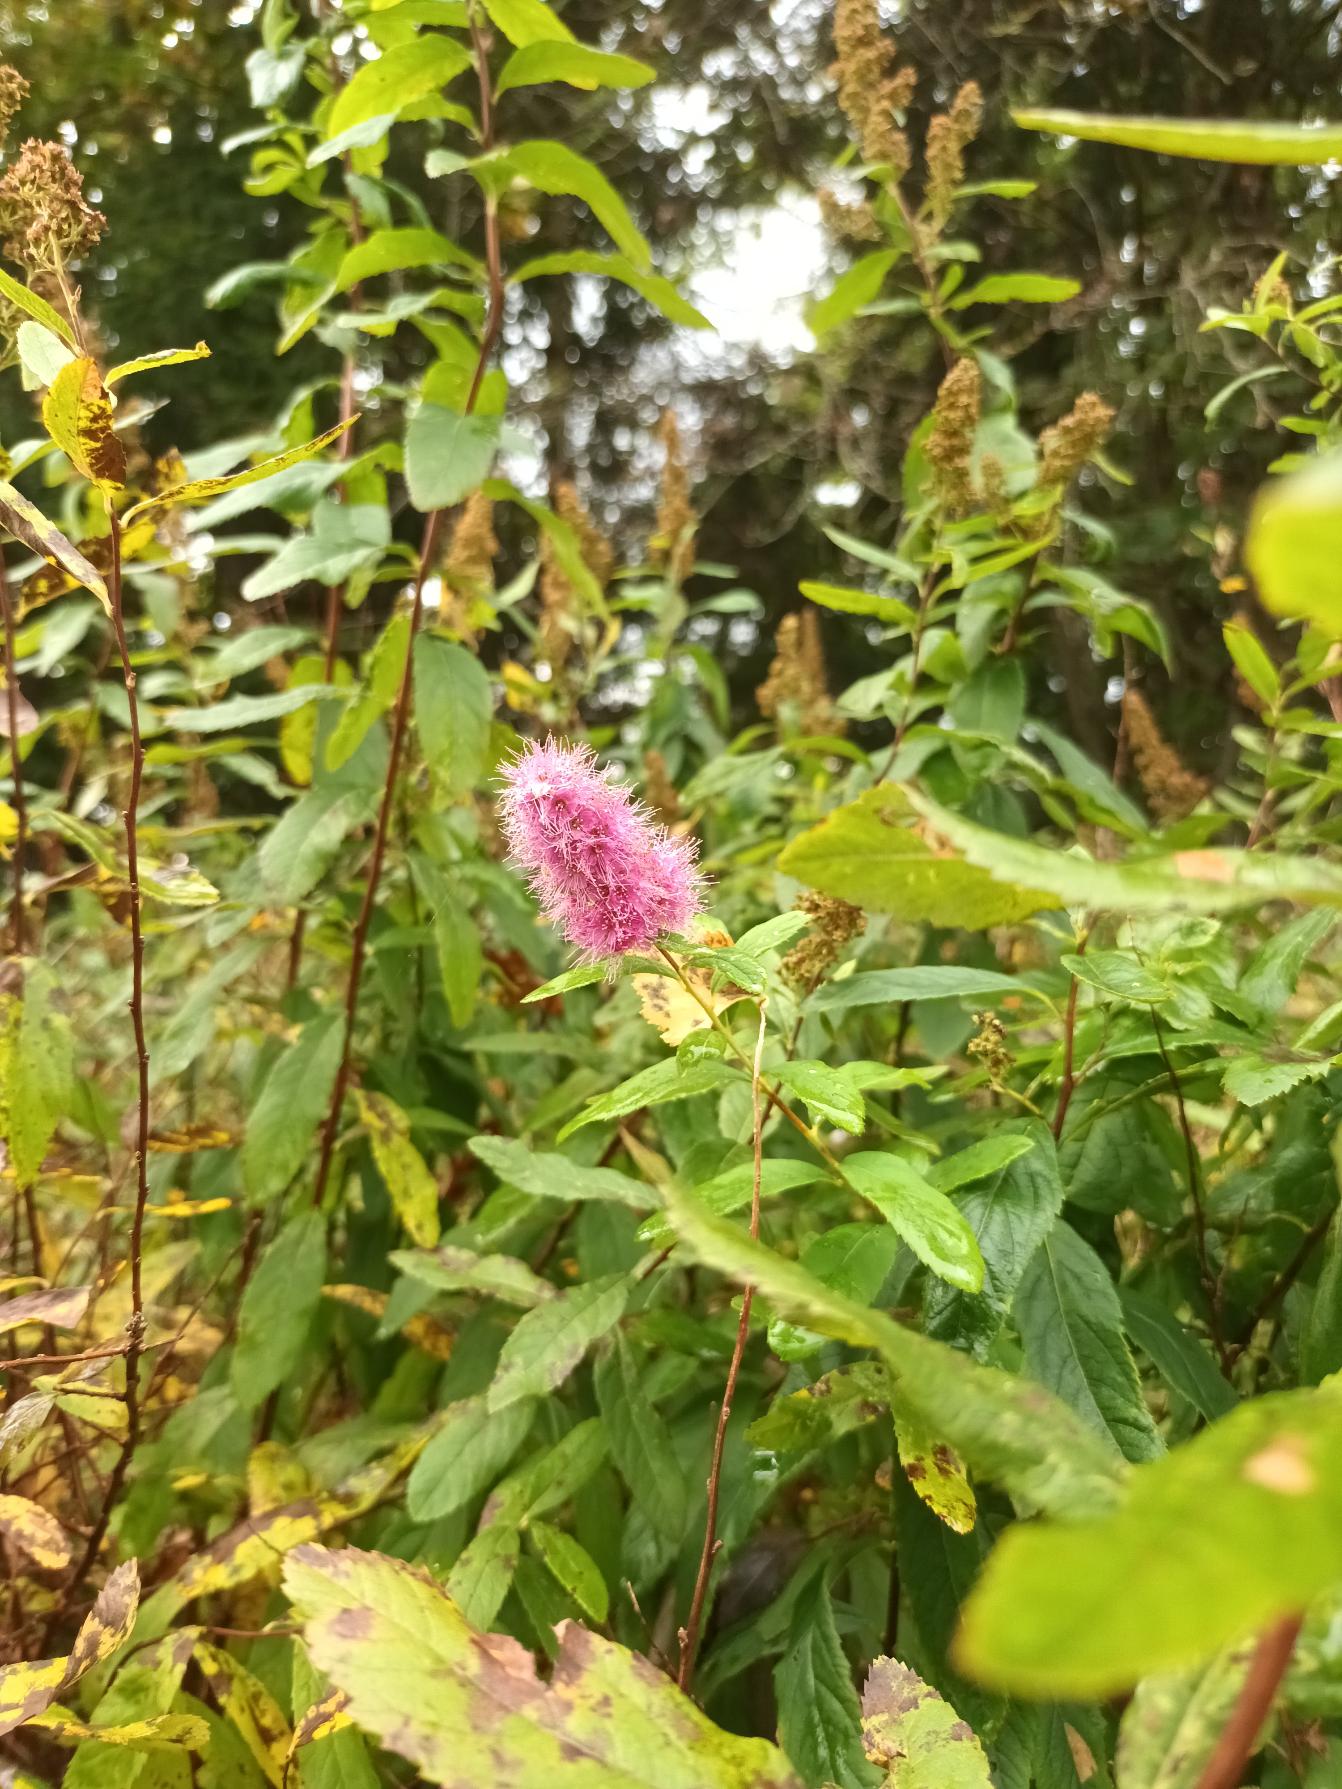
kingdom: Plantae
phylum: Tracheophyta
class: Magnoliopsida
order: Rosales
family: Rosaceae
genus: Spiraea
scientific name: Spiraea billardii
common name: Klase-spiræa
